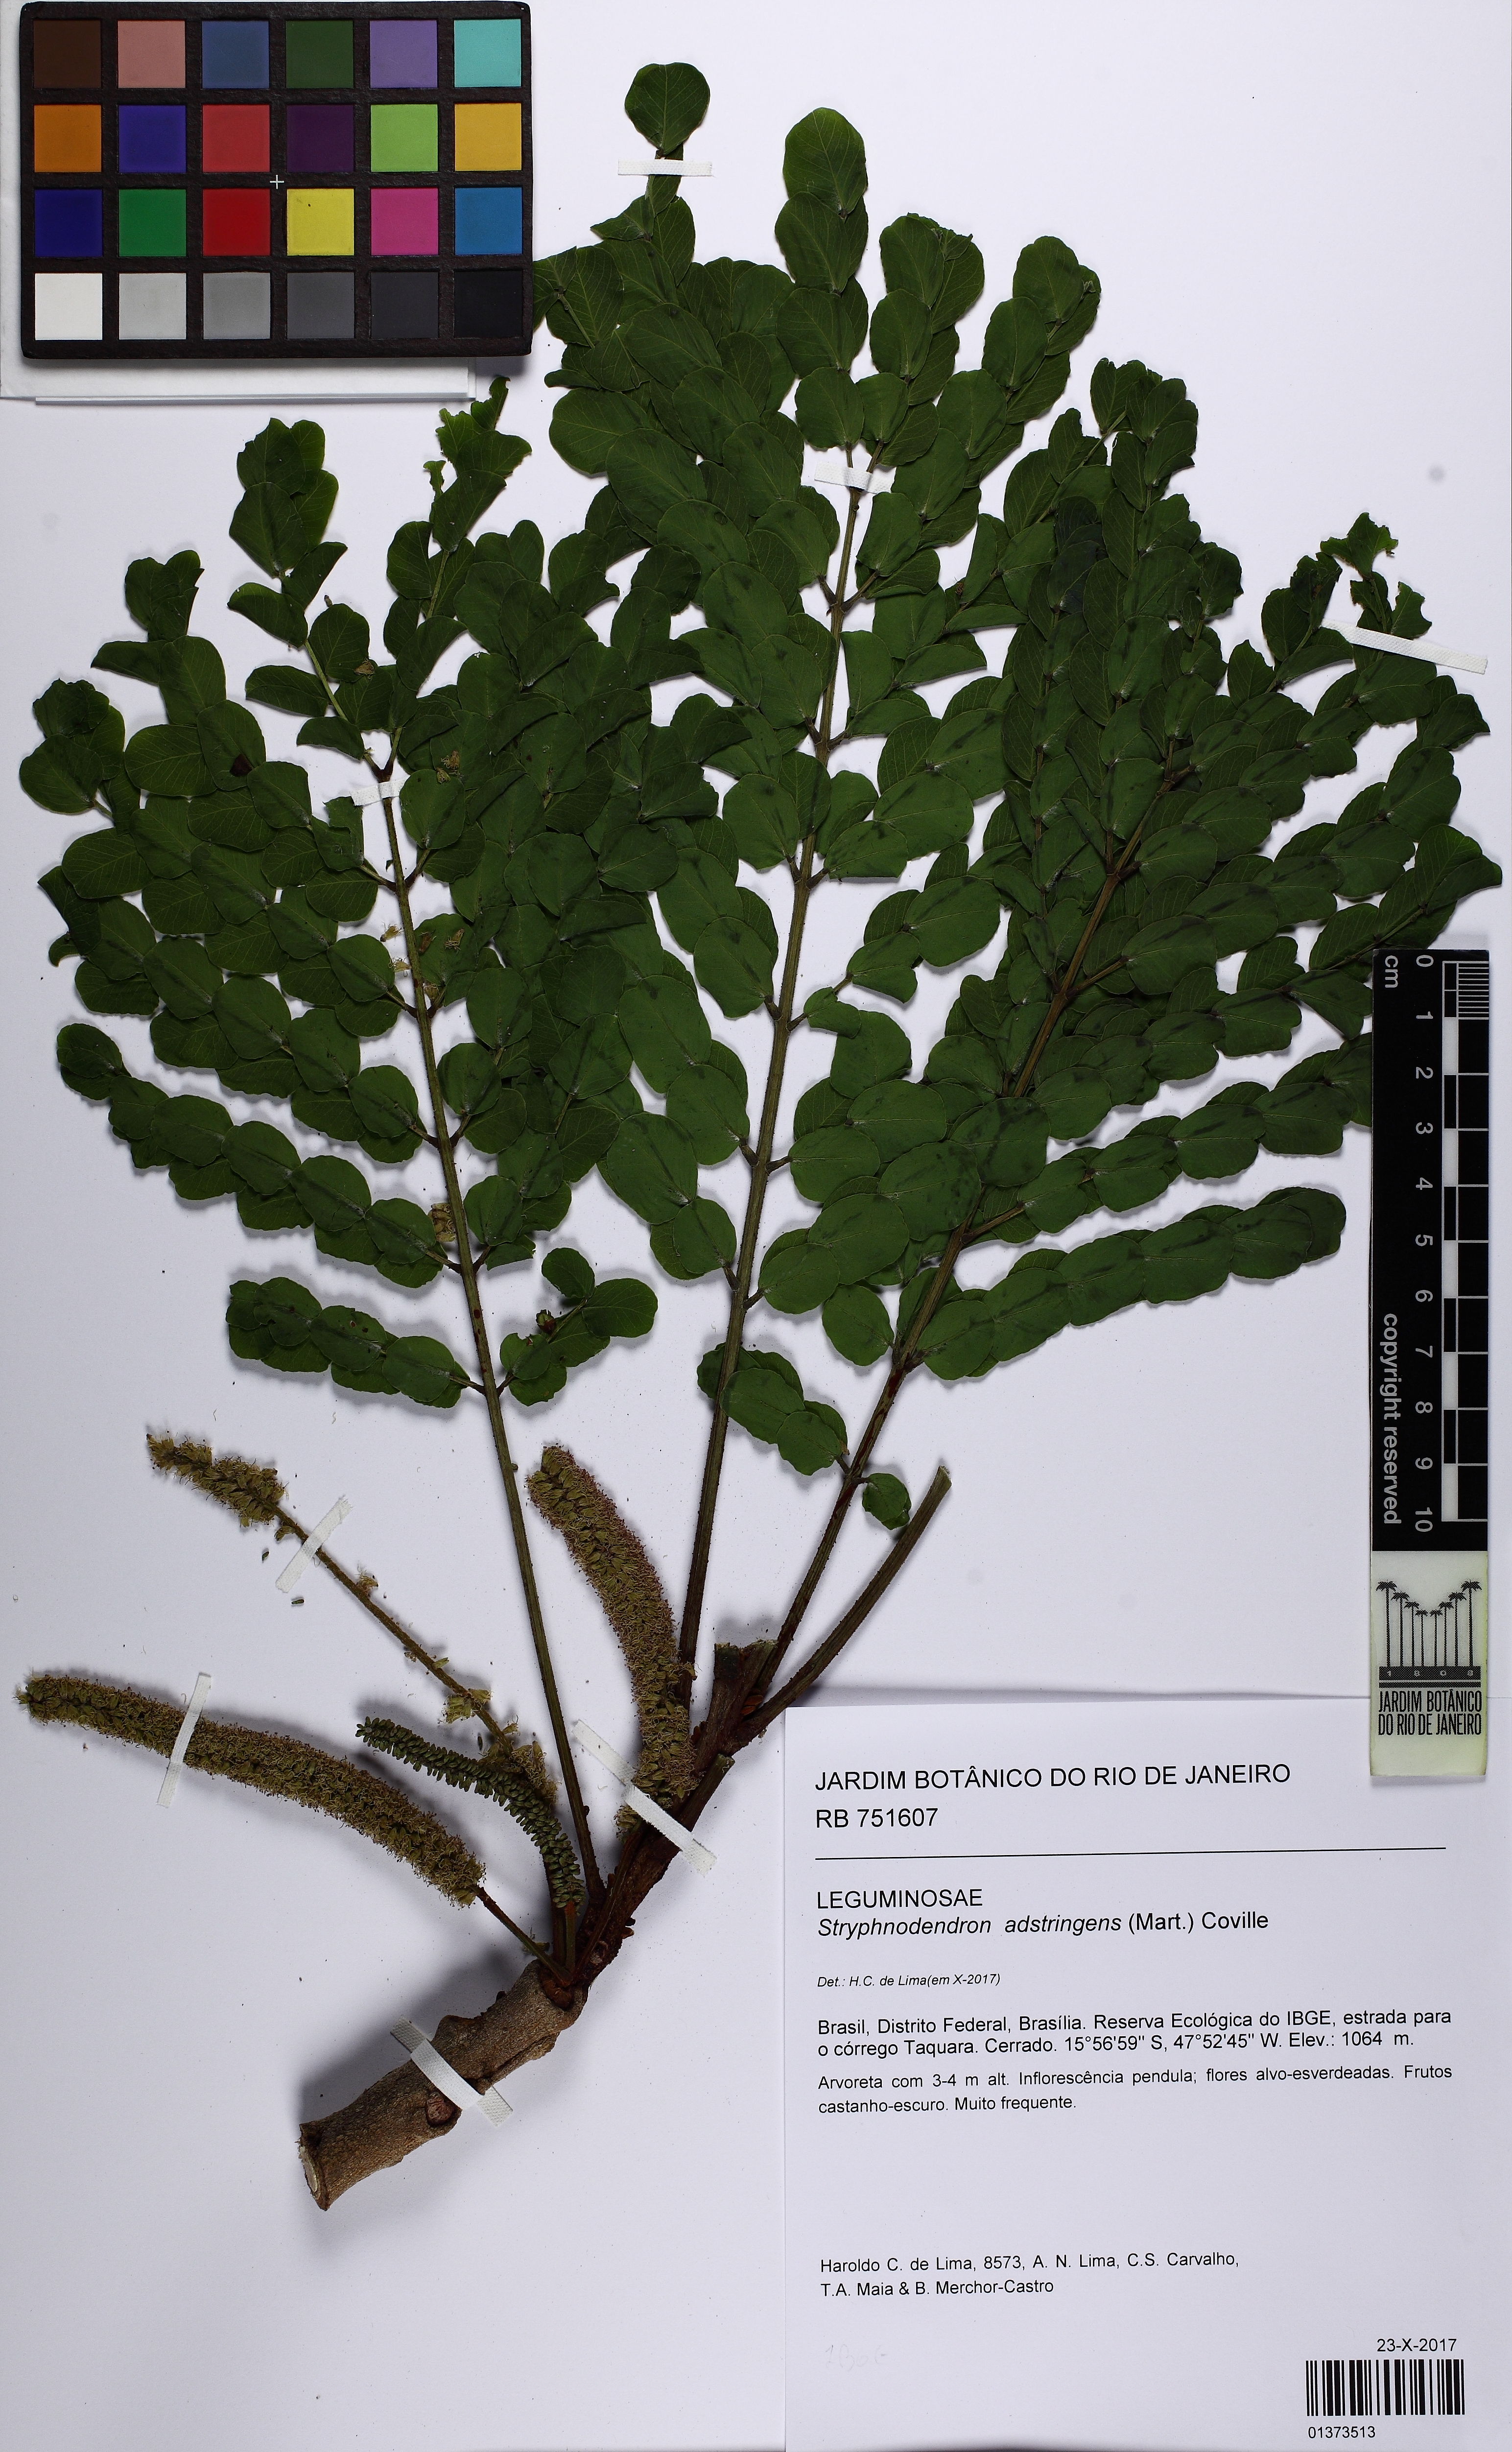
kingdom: Plantae
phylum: Tracheophyta
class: Magnoliopsida
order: Fabales
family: Fabaceae
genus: Stryphnodendron
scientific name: Stryphnodendron adstringens
